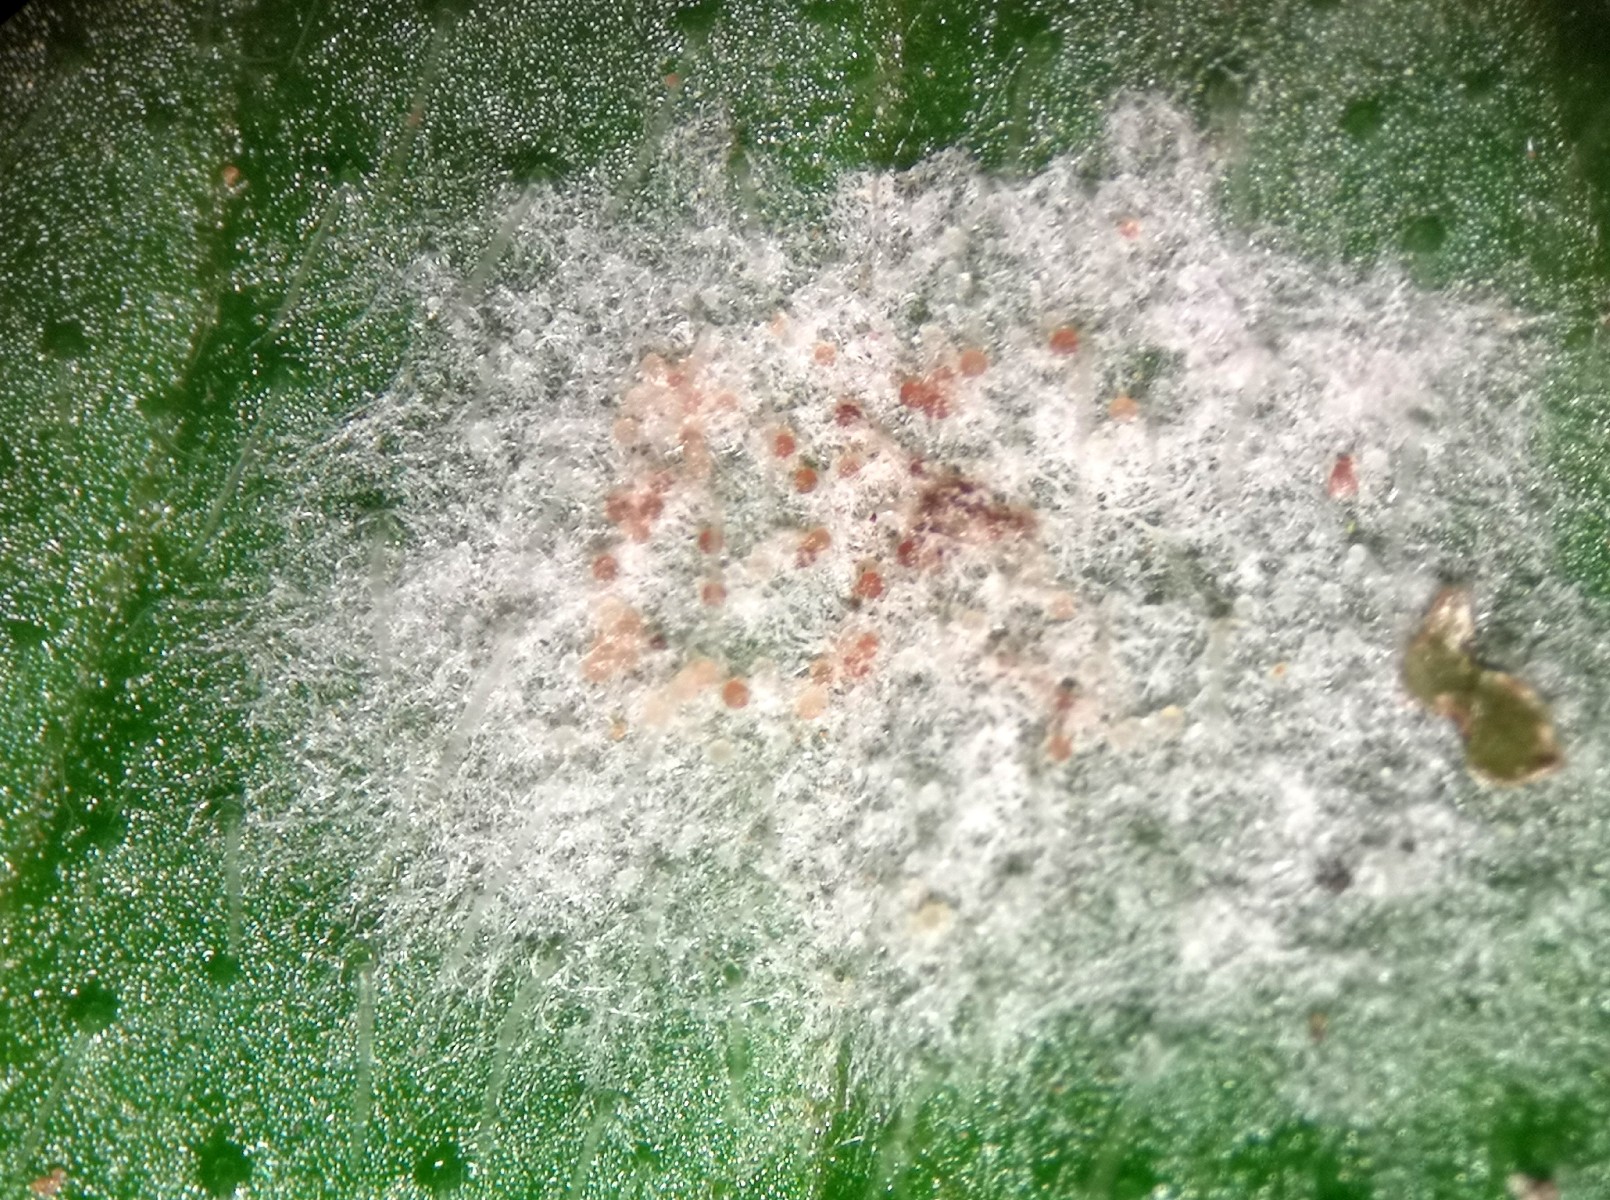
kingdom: Fungi
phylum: Ascomycota
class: Leotiomycetes
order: Helotiales
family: Erysiphaceae
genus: Podosphaera
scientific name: Podosphaera aphanis
